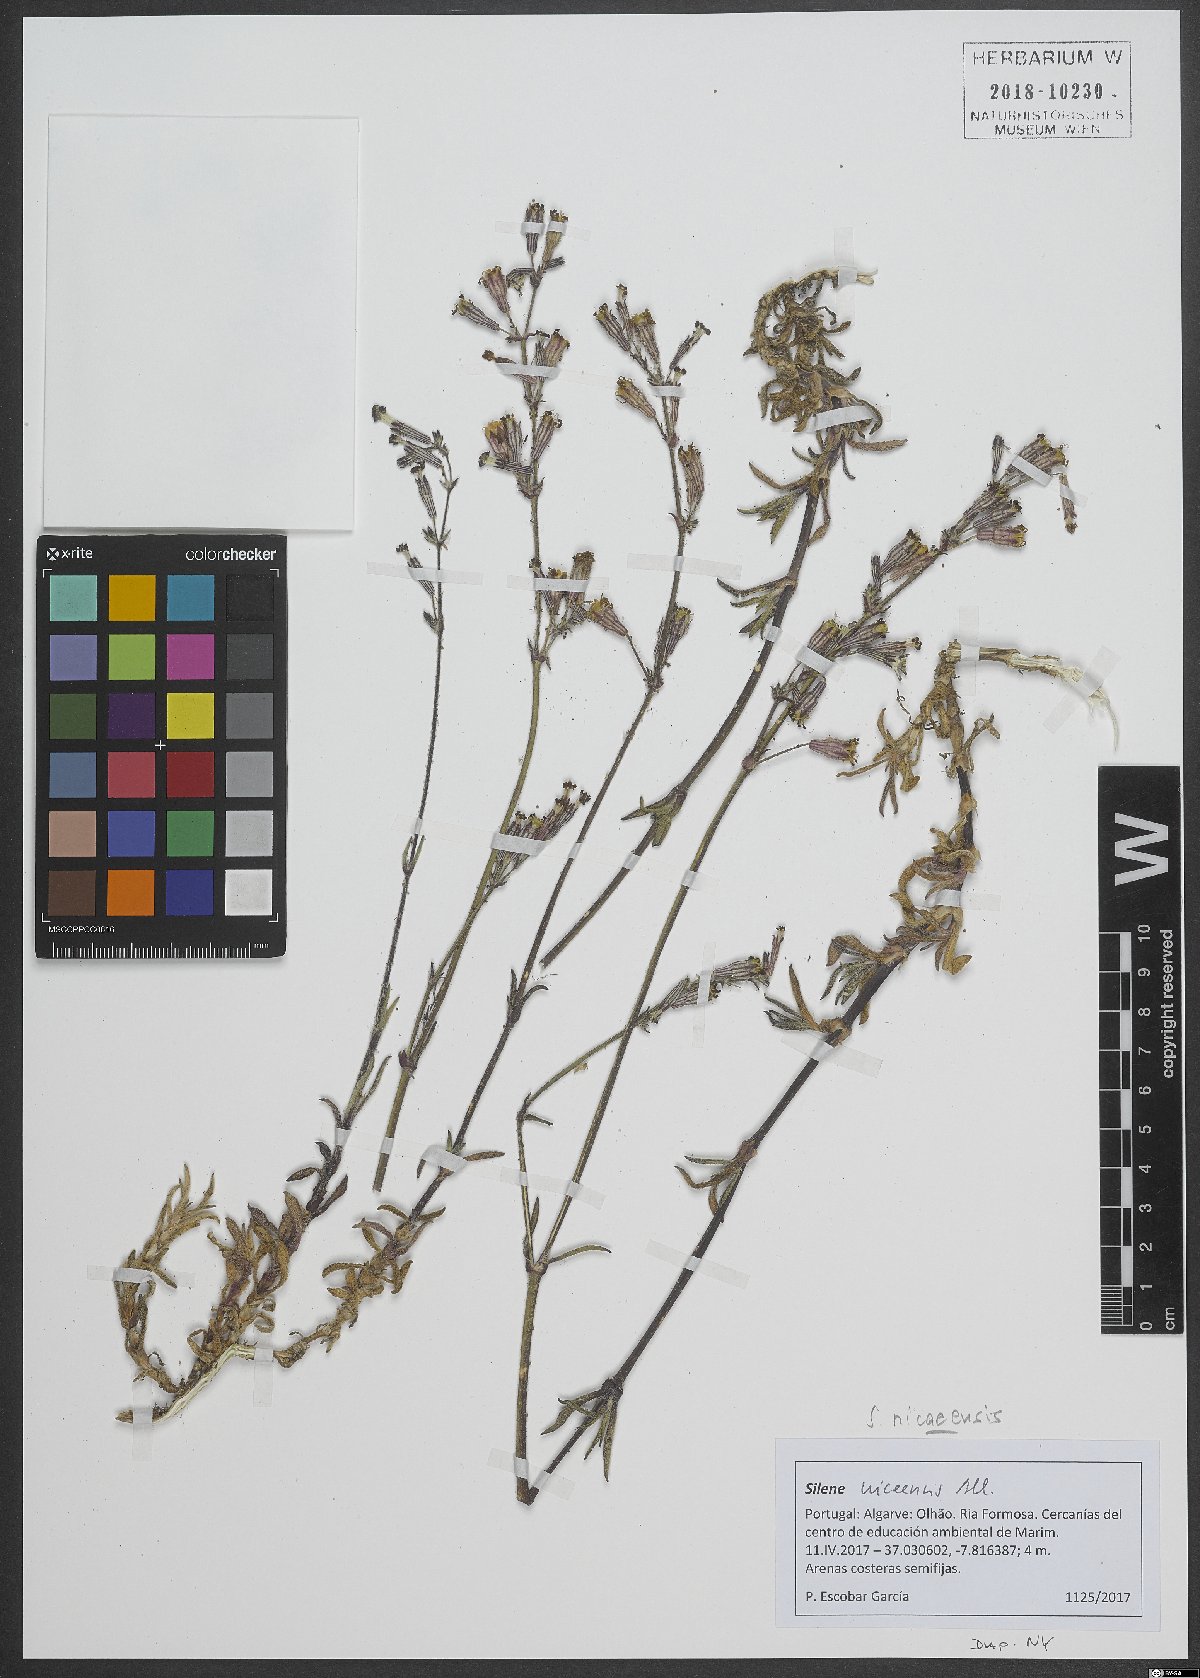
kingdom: Plantae
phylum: Tracheophyta
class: Magnoliopsida
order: Caryophyllales
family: Caryophyllaceae
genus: Silene
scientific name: Silene nicaeensis
